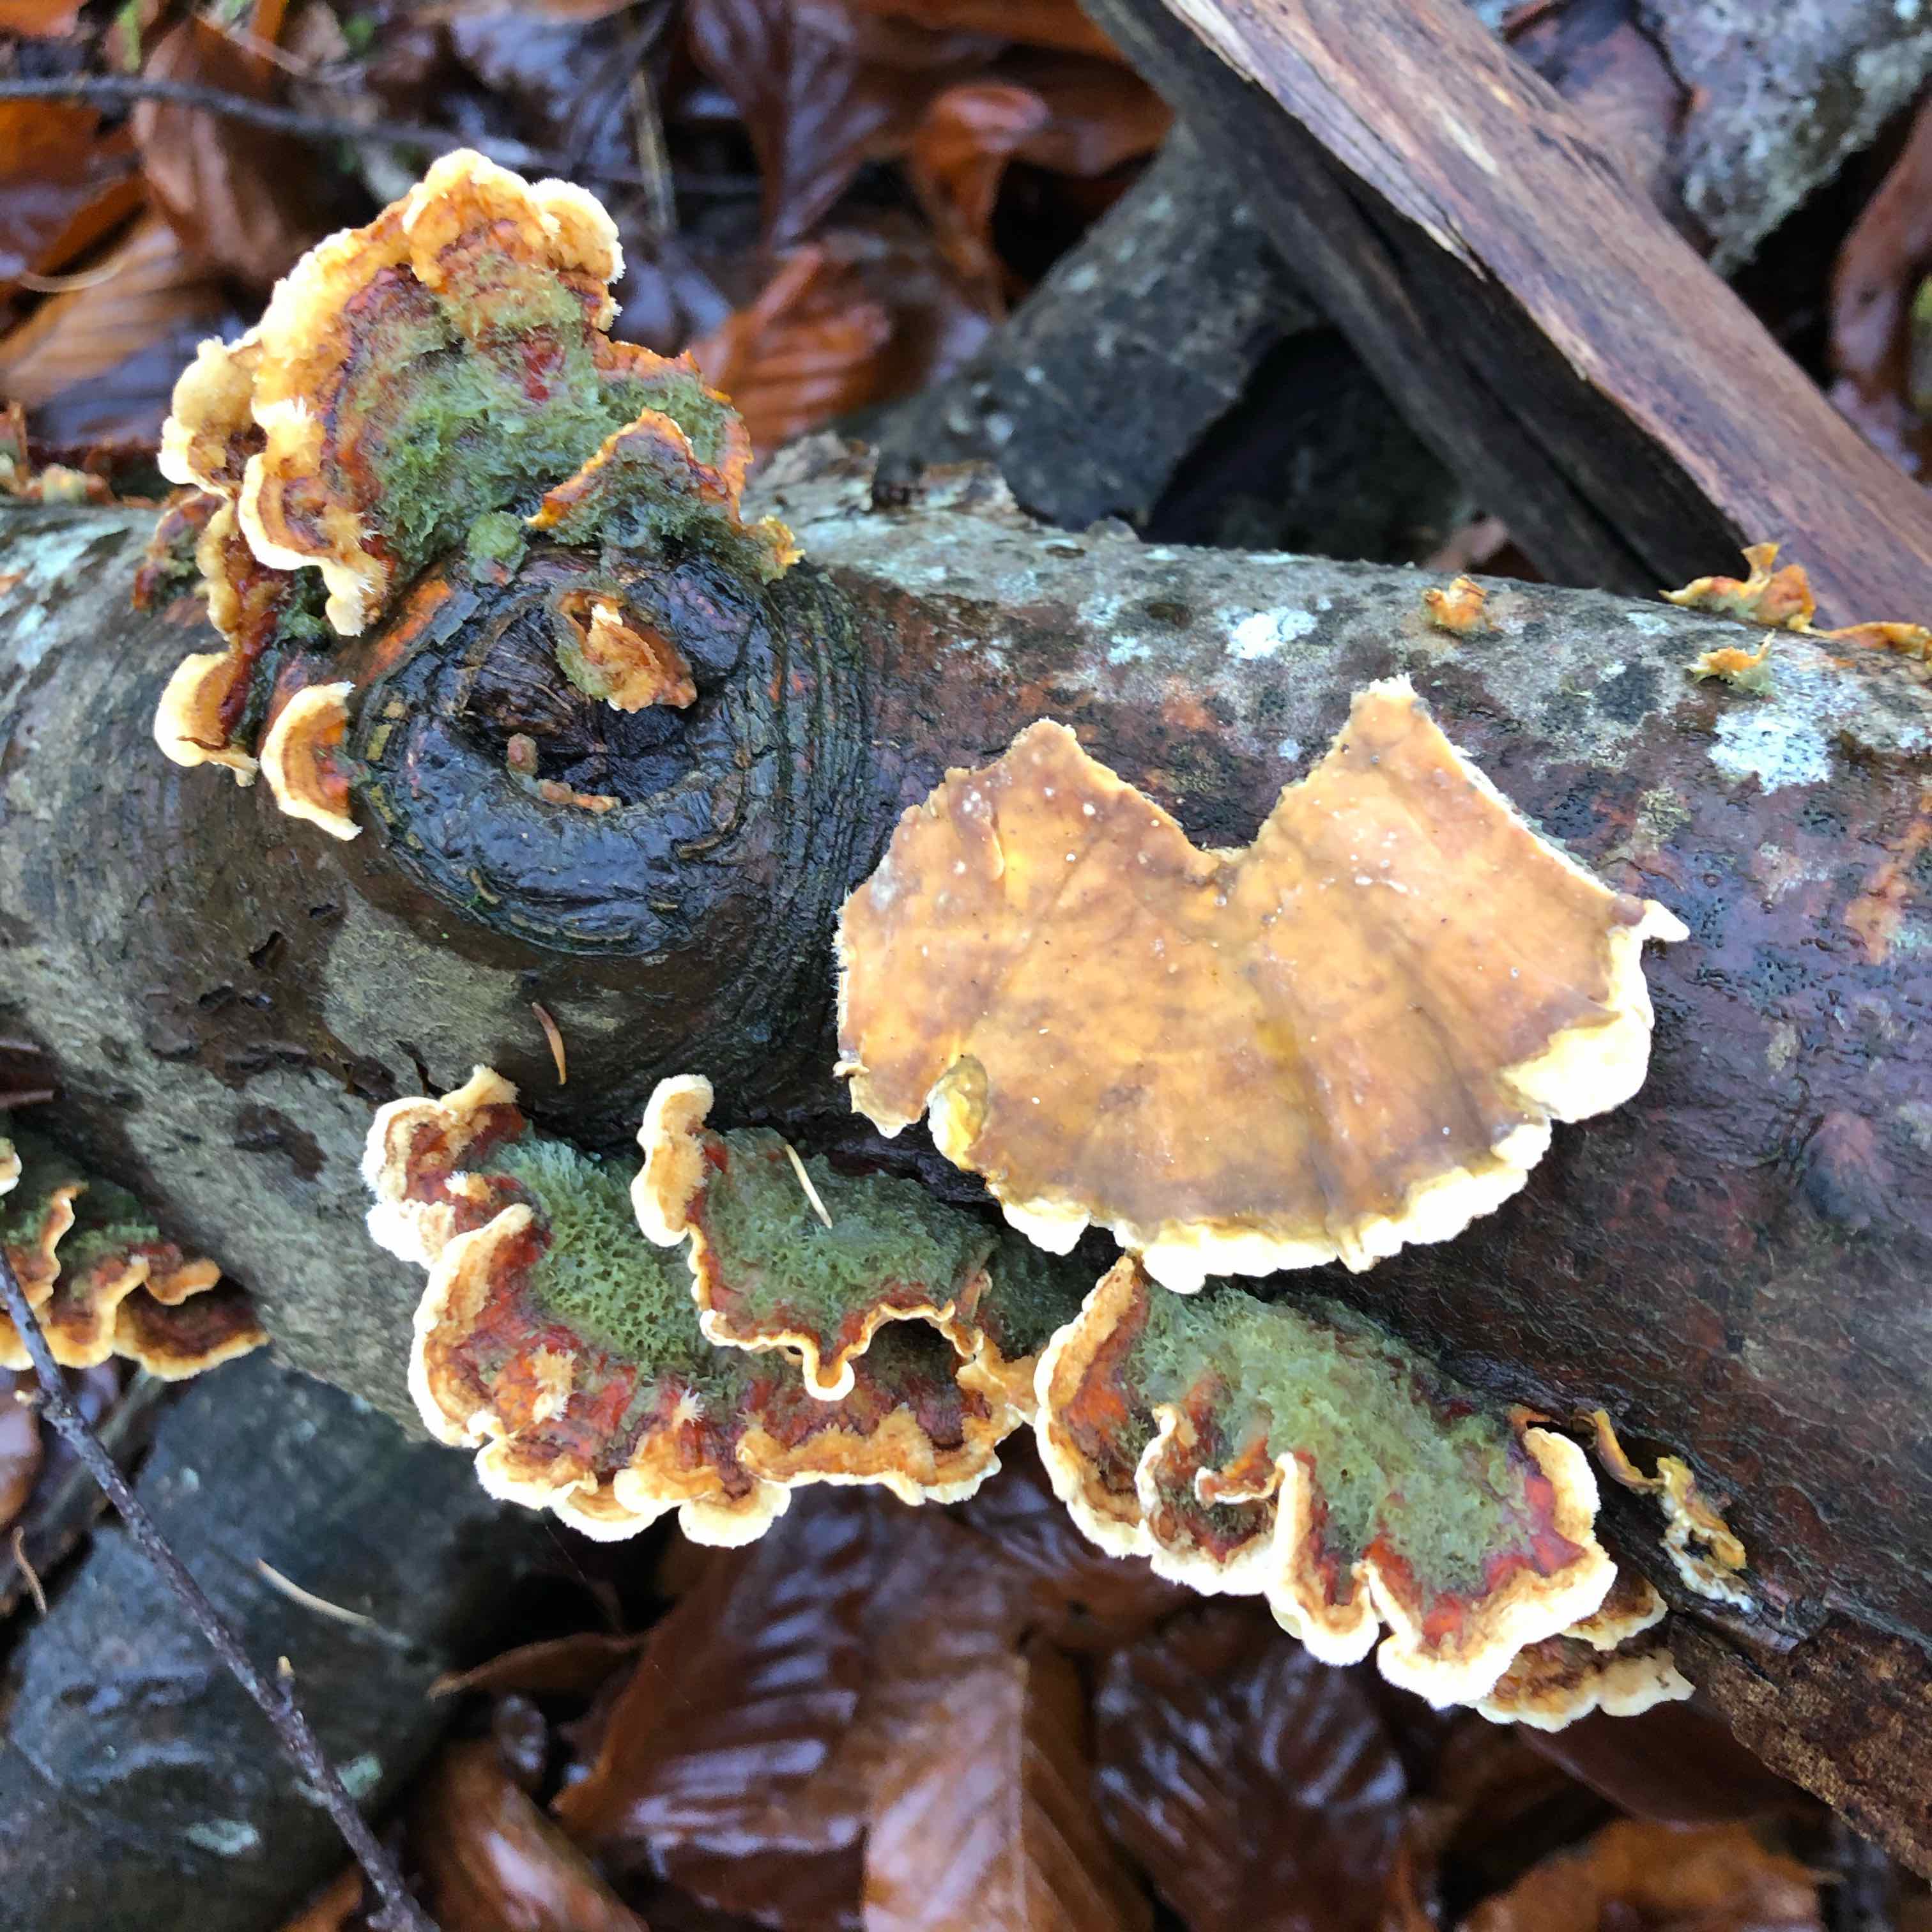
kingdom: Fungi
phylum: Basidiomycota
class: Agaricomycetes
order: Russulales
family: Stereaceae
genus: Stereum
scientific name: Stereum hirsutum
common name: håret lædersvamp
